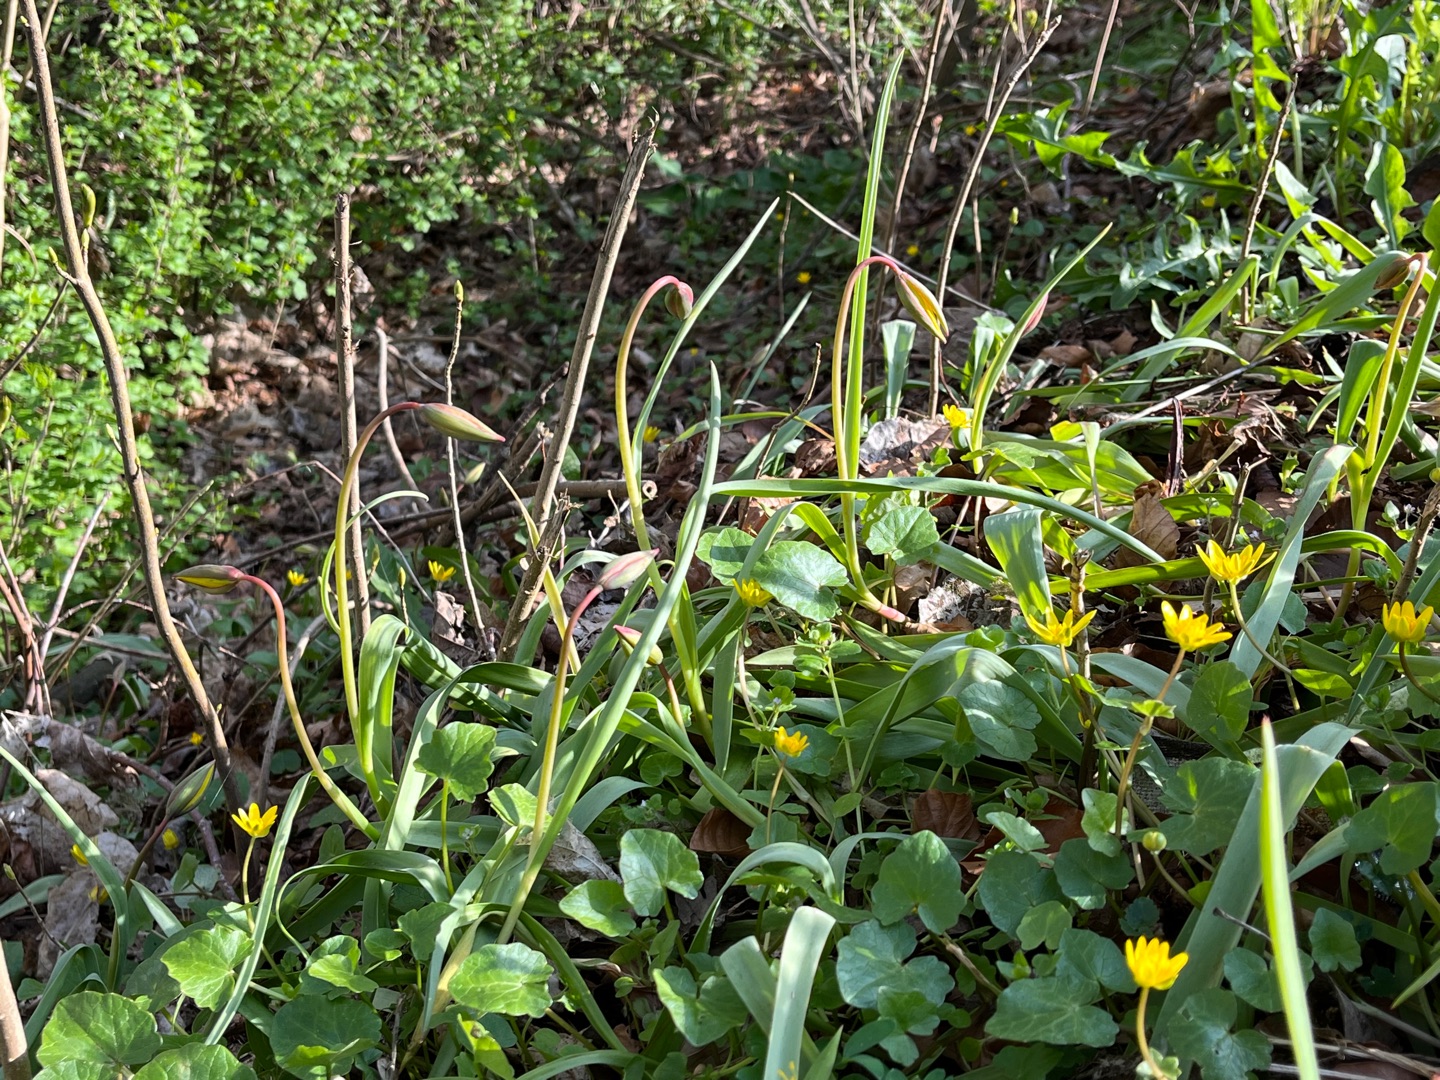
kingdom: Plantae
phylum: Tracheophyta
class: Magnoliopsida
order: Ranunculales
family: Ranunculaceae
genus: Ficaria
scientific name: Ficaria verna
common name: Vorterod
